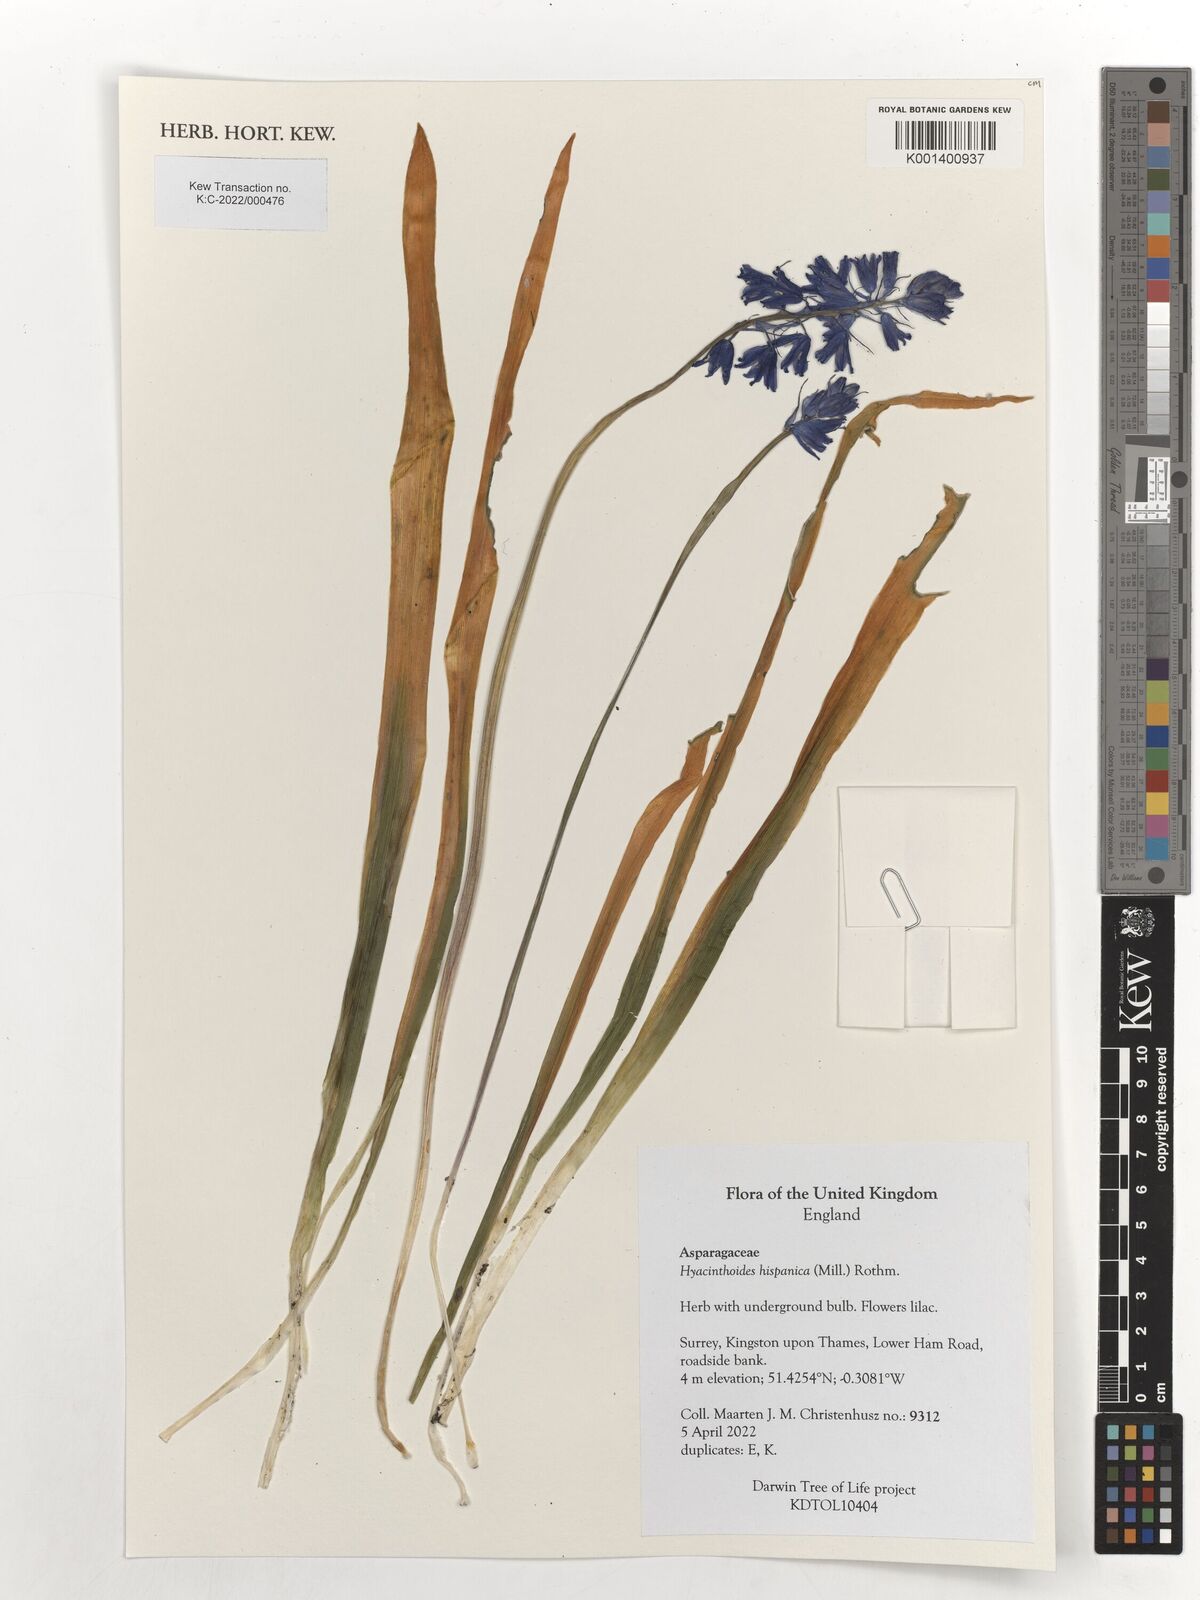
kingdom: Plantae
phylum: Tracheophyta
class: Liliopsida
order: Asparagales
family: Asparagaceae
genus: Hyacinthoides
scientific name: Hyacinthoides hispanica
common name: Spanish bluebell
